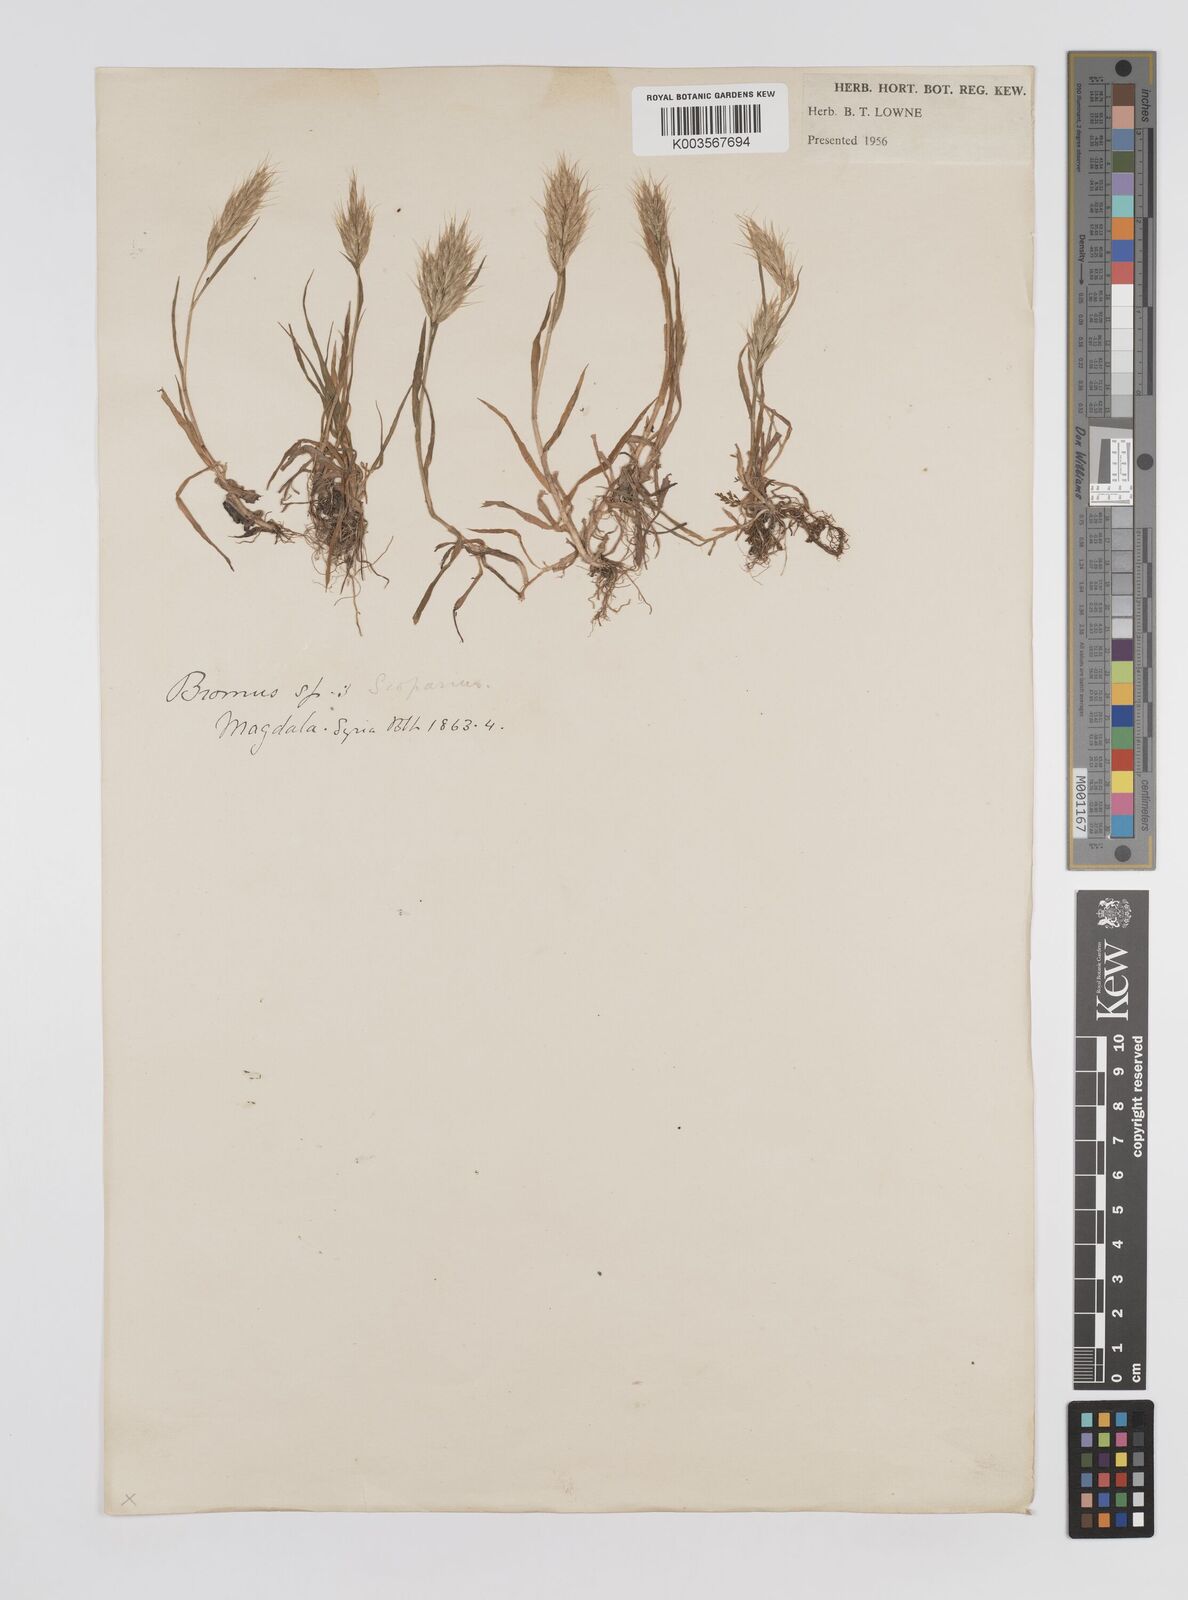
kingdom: Plantae
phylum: Tracheophyta
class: Liliopsida
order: Poales
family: Poaceae
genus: Bromus
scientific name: Bromus
